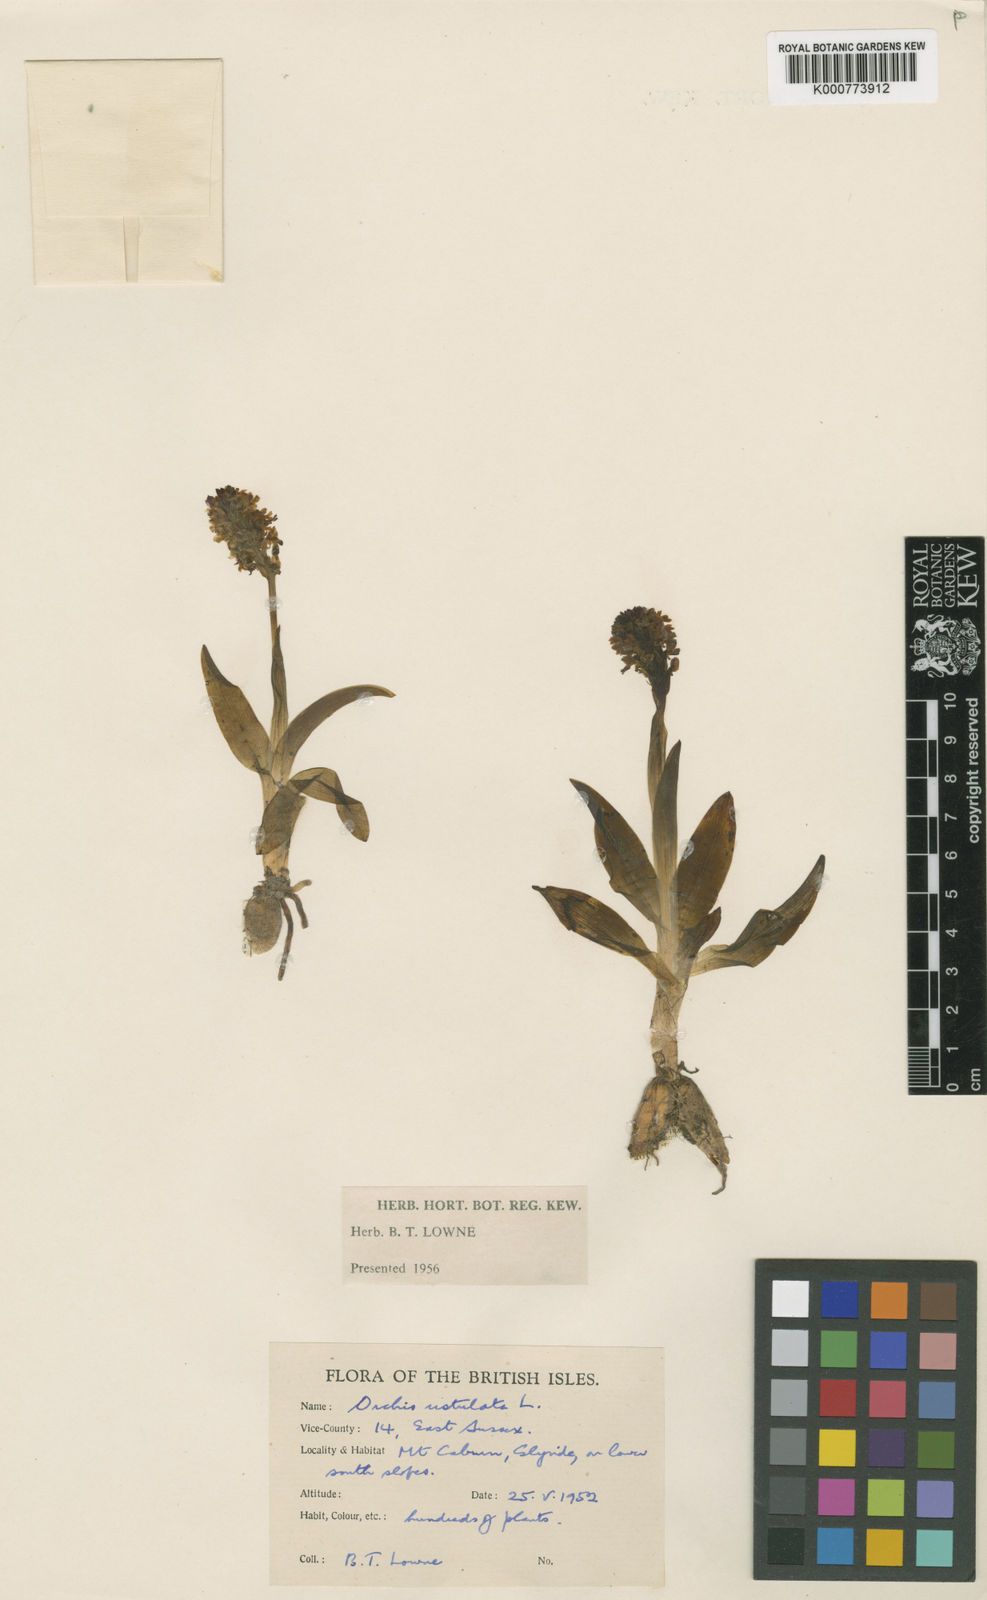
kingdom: Plantae
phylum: Tracheophyta
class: Liliopsida
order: Asparagales
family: Orchidaceae
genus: Neotinea
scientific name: Neotinea ustulata
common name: Burnt orchid
